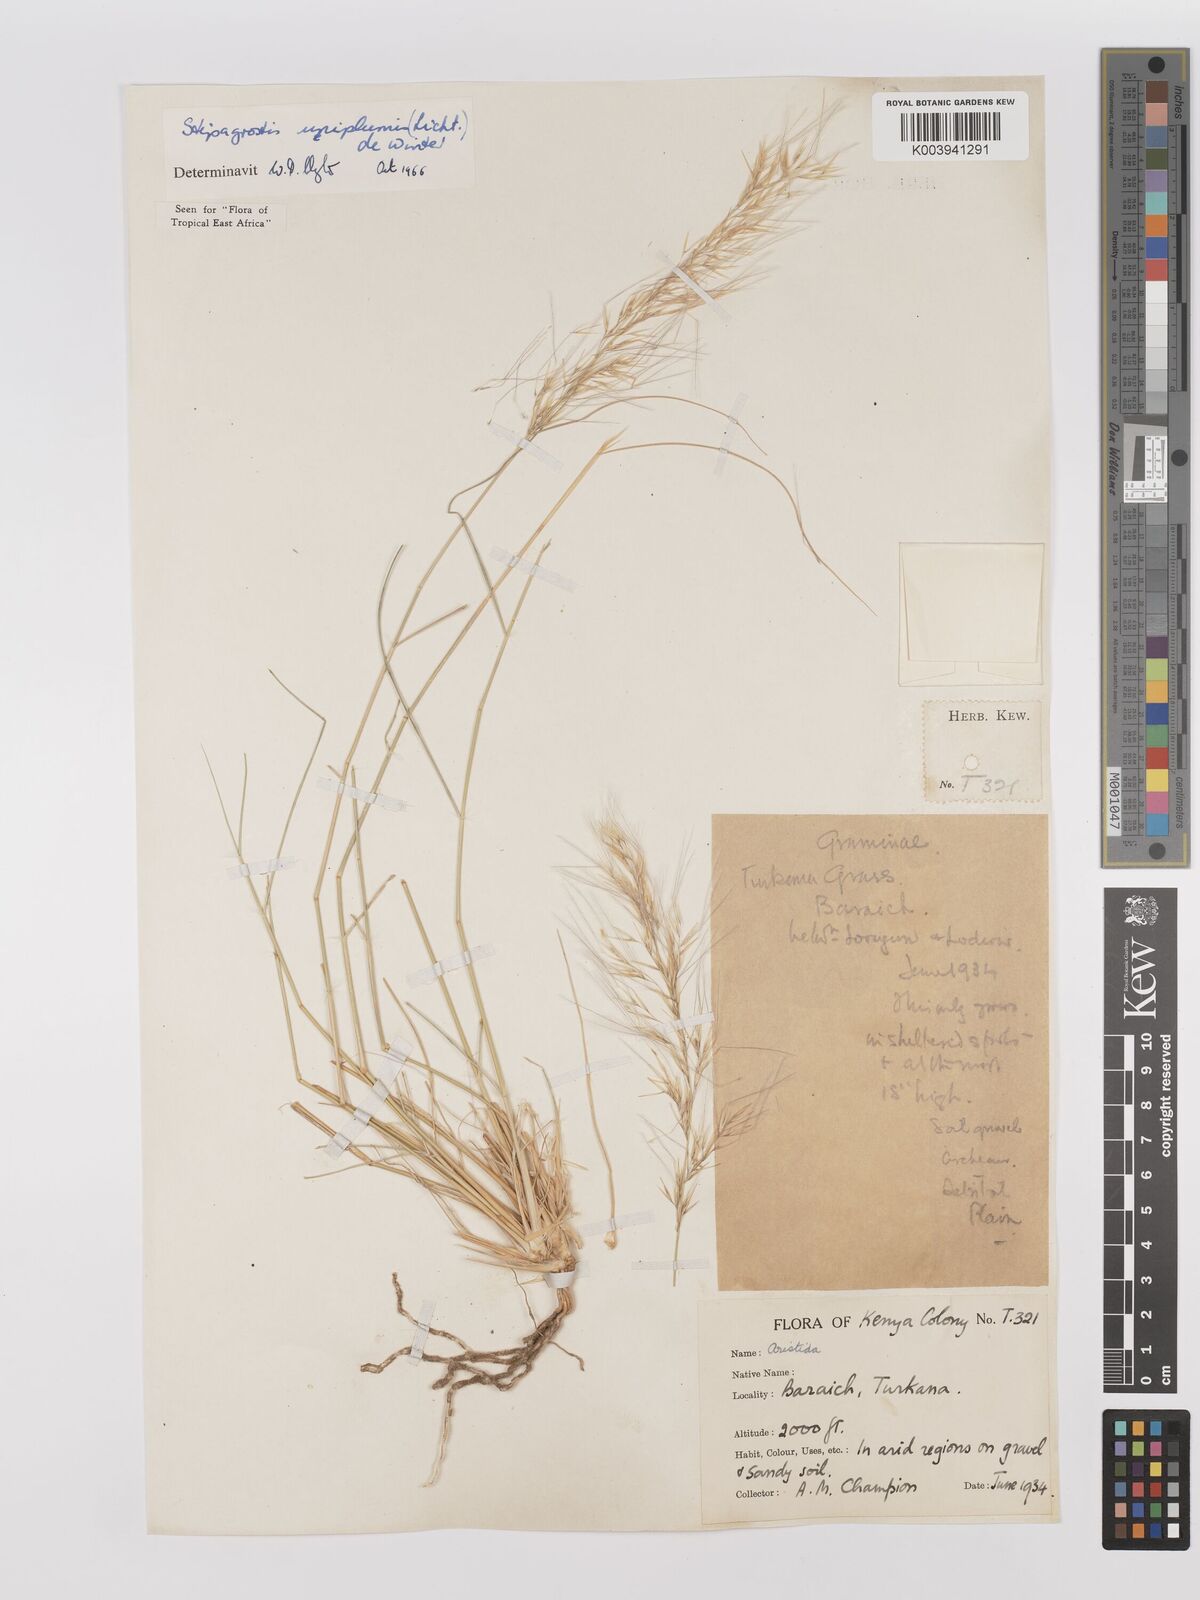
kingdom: Plantae
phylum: Tracheophyta
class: Liliopsida
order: Poales
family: Poaceae
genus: Stipagrostis
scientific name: Stipagrostis uniplumis
